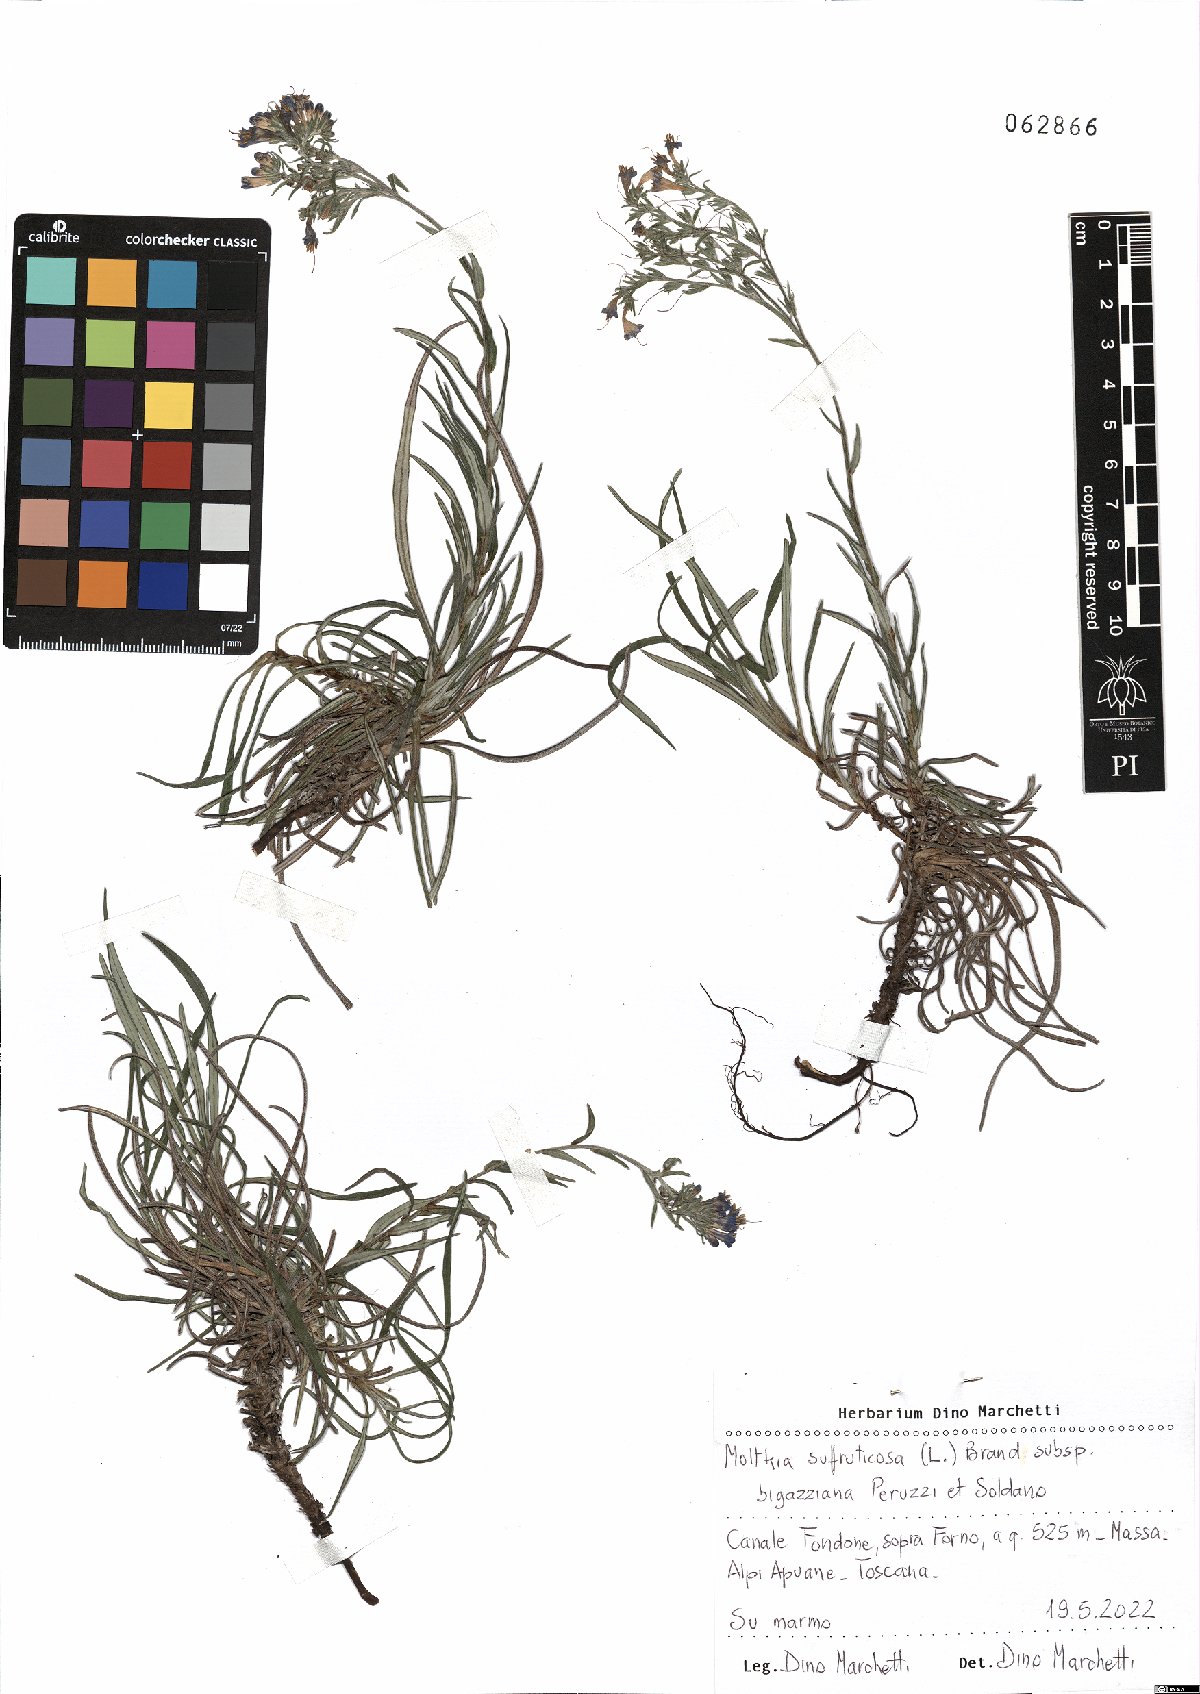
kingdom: Plantae
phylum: Tracheophyta
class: Magnoliopsida
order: Boraginales
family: Boraginaceae
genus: Moltkia
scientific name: Moltkia suffruticosa
